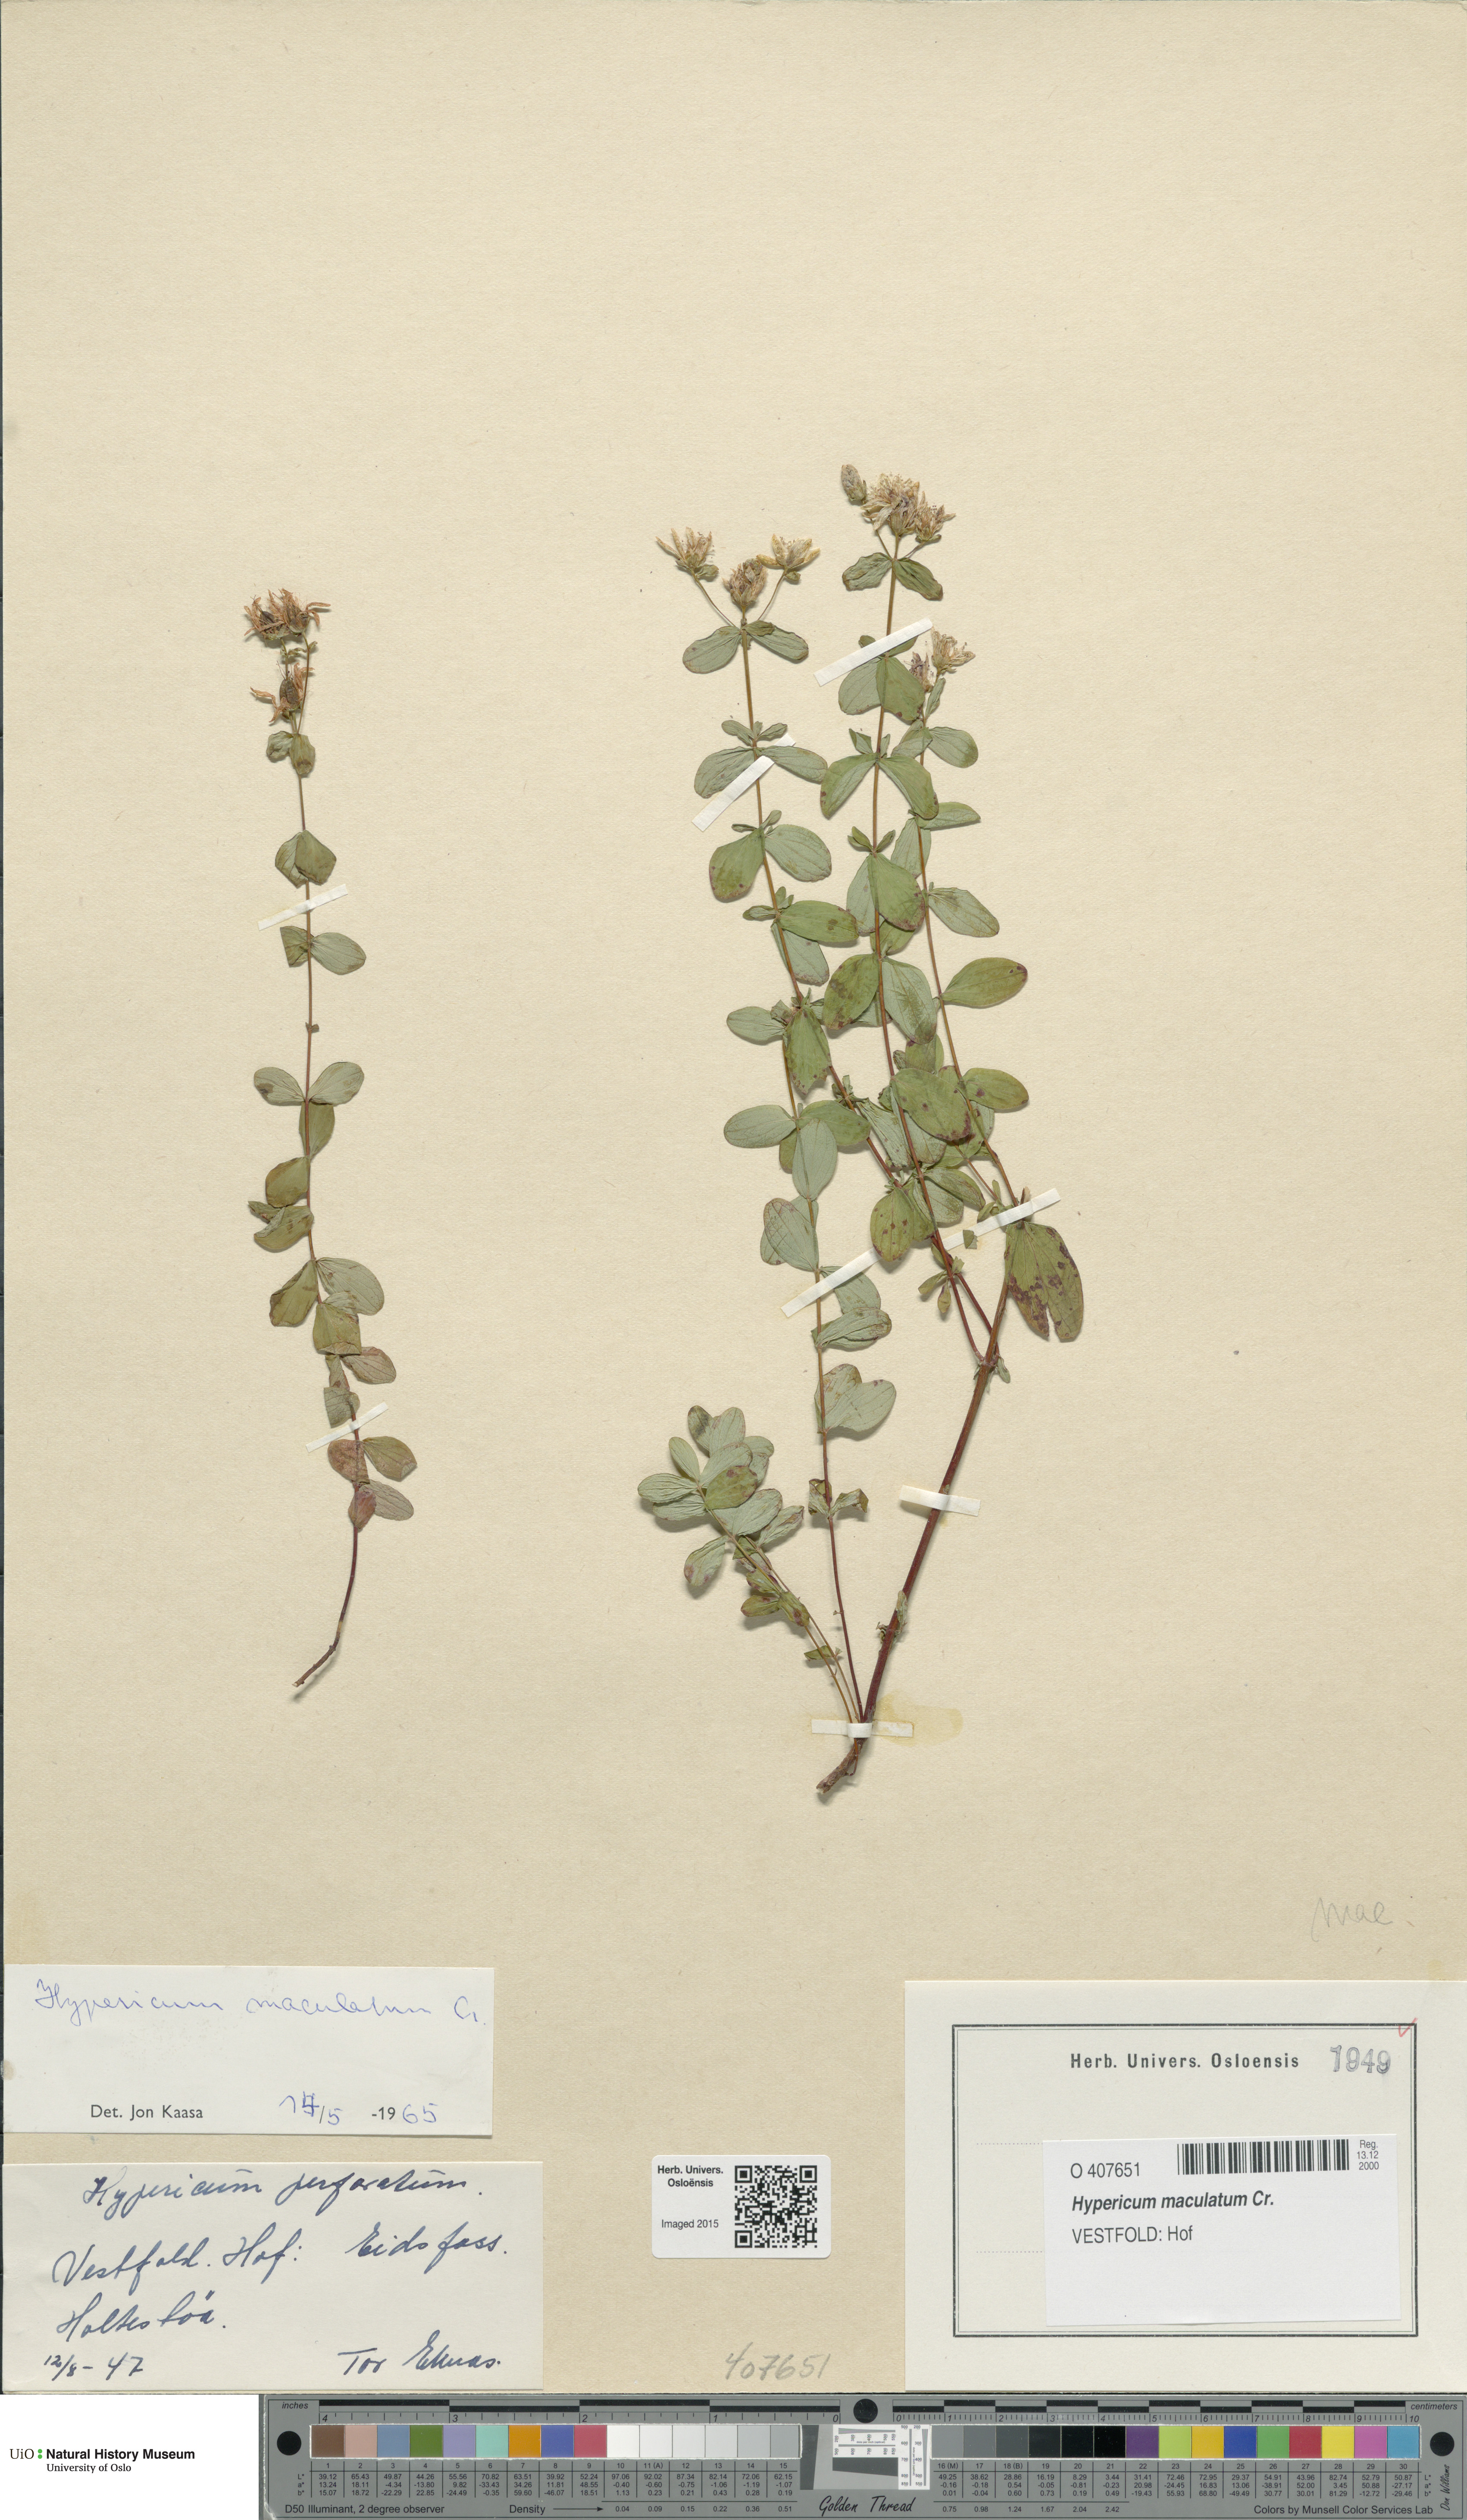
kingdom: Plantae
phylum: Tracheophyta
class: Magnoliopsida
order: Malpighiales
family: Hypericaceae
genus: Hypericum
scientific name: Hypericum maculatum
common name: Imperforate st. john's-wort
